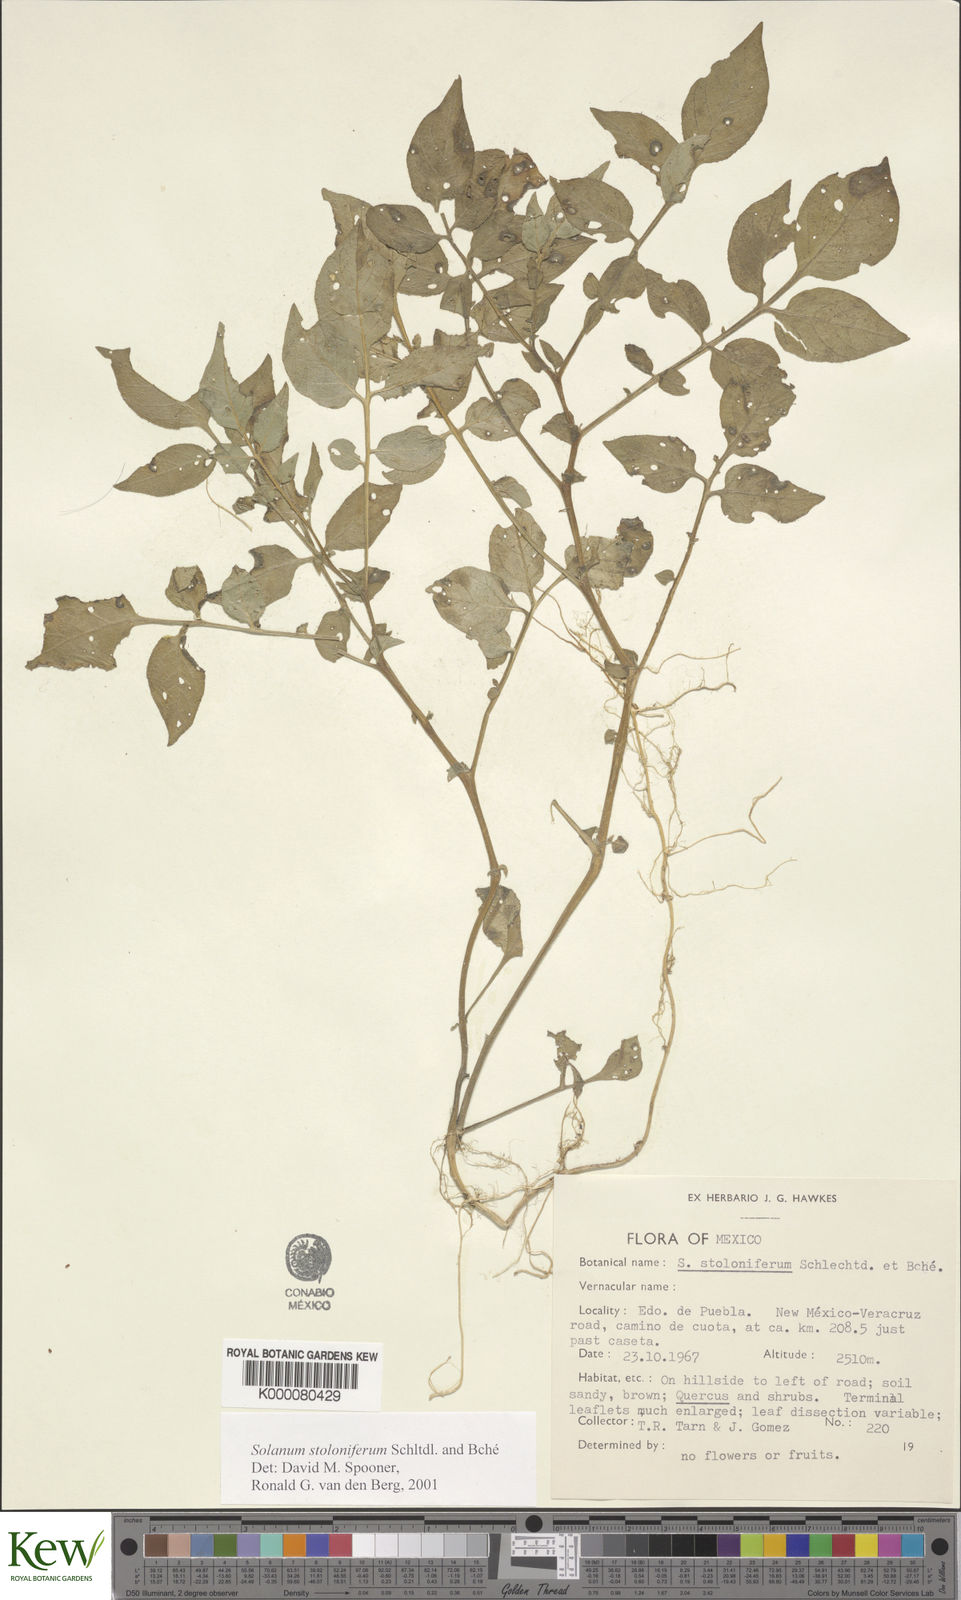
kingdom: Plantae
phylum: Tracheophyta
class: Magnoliopsida
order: Solanales
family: Solanaceae
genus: Solanum
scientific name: Solanum stoloniferum
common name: Fendler's nighshade
